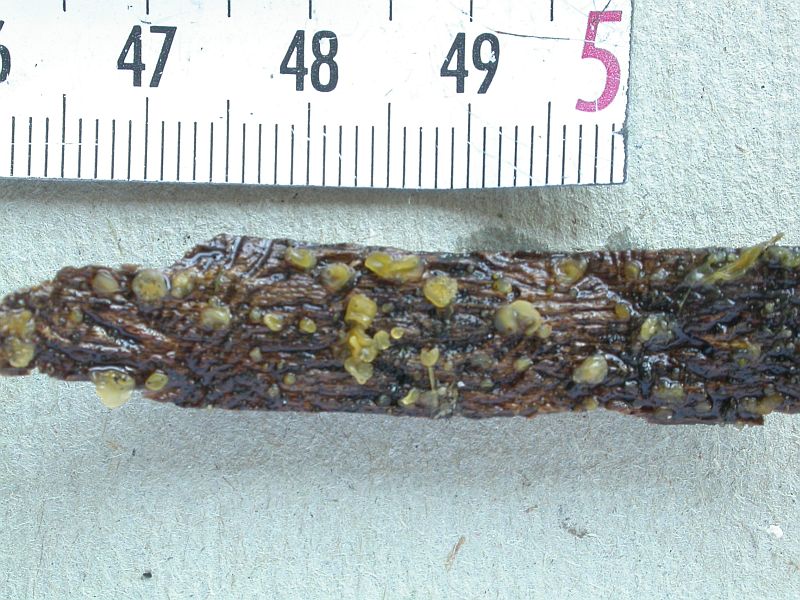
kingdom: Fungi
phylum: Basidiomycota
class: Dacrymycetes
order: Dacrymycetales
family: Dacrymycetaceae
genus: Dacrymyces
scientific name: Dacrymyces minor
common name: lille tåresvamp
